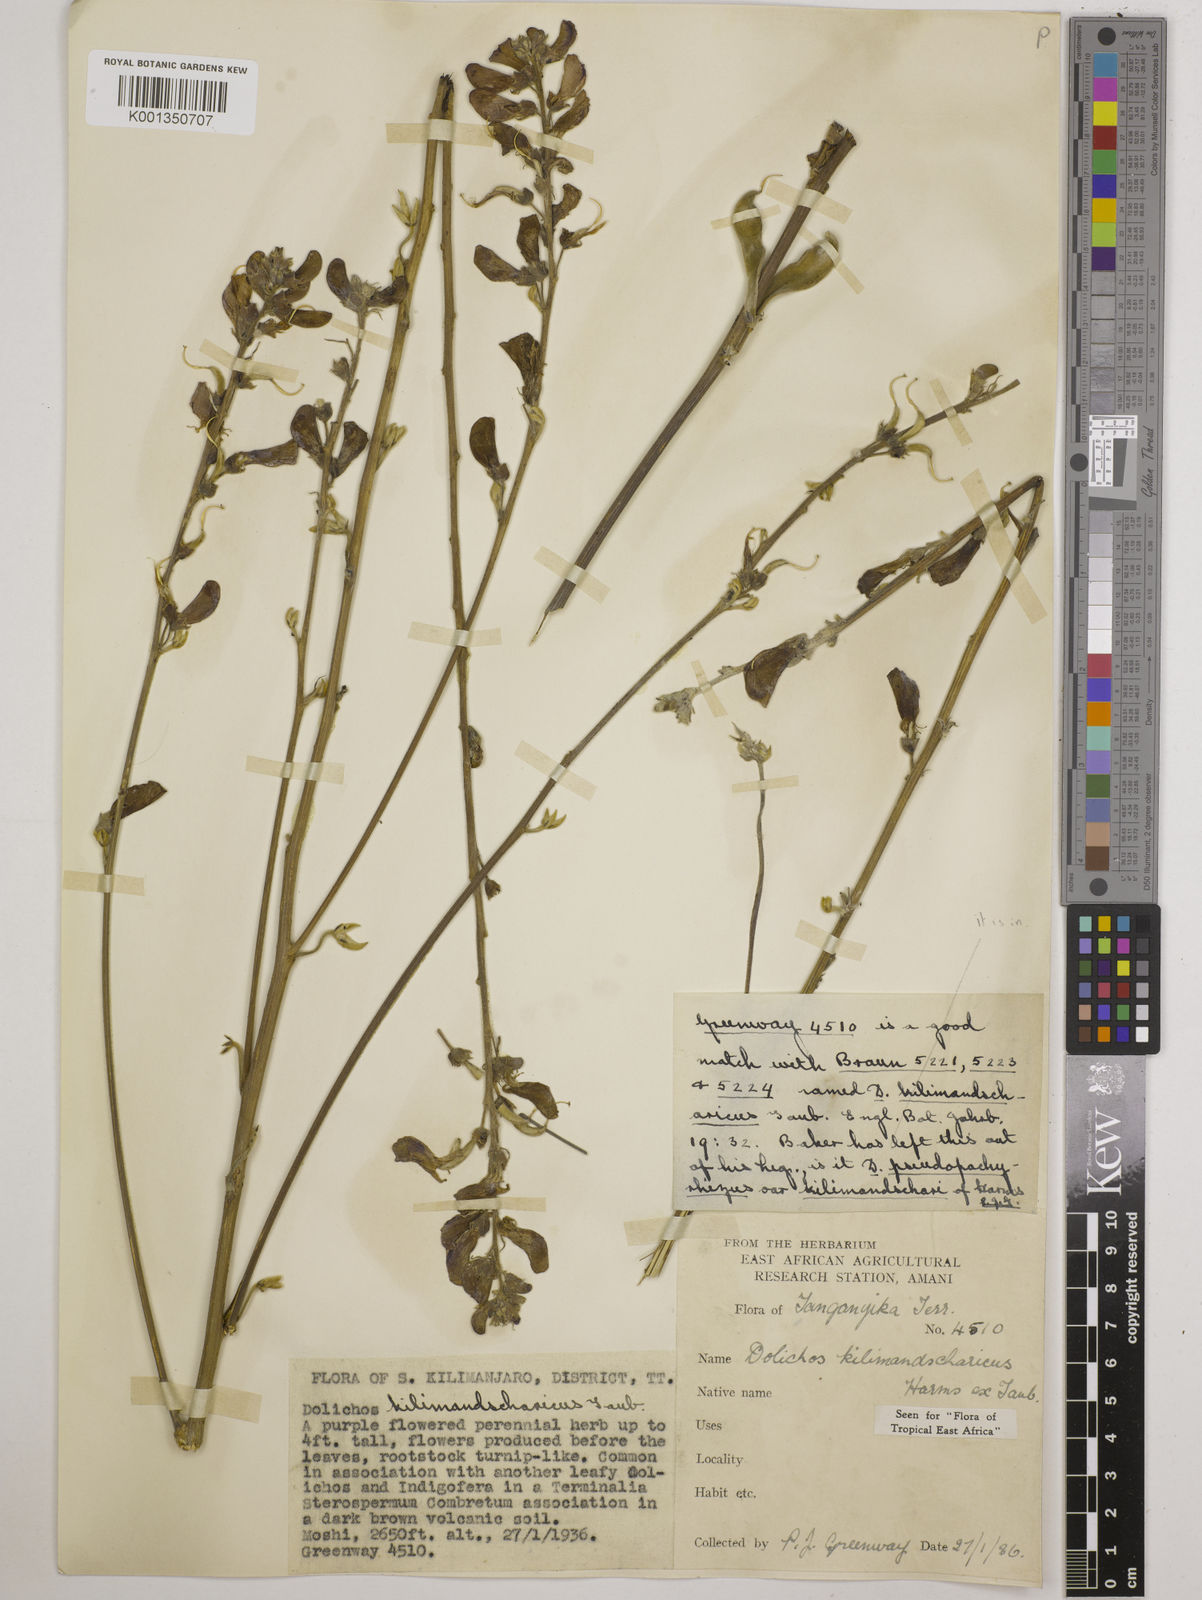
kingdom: Plantae
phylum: Tracheophyta
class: Magnoliopsida
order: Fabales
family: Fabaceae
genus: Dolichos
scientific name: Dolichos kilimandscharicus
